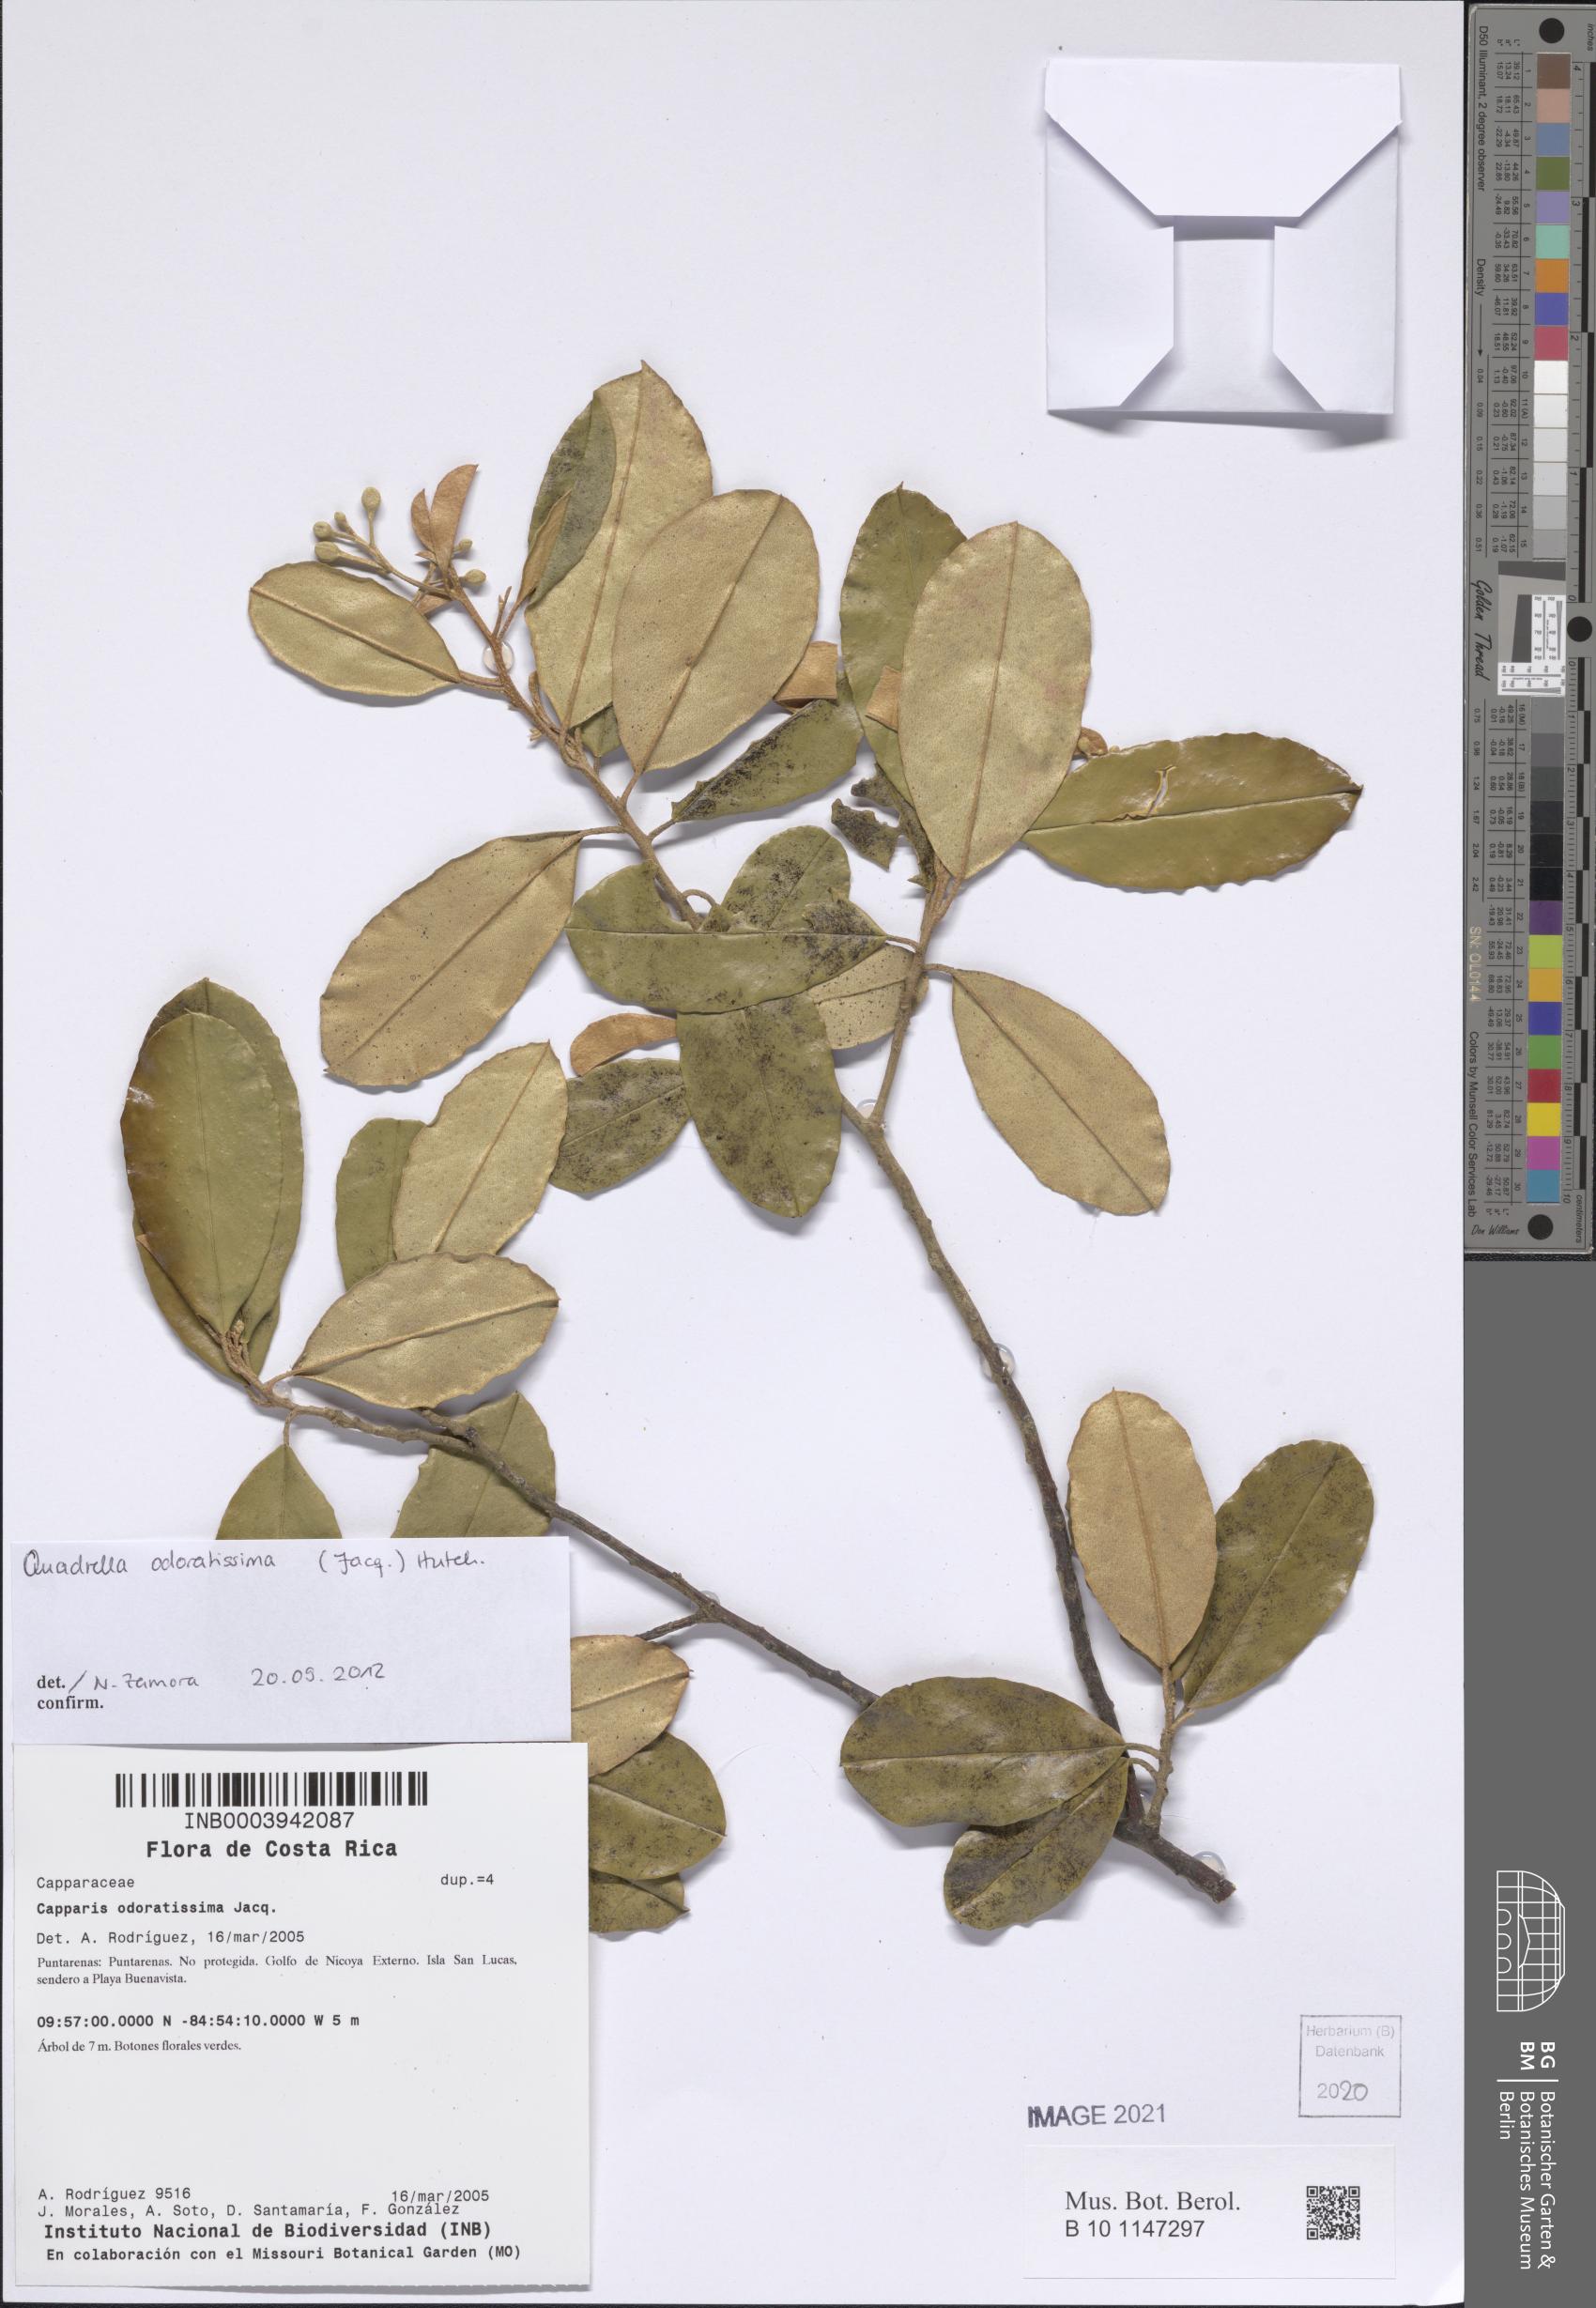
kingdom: Plantae
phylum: Tracheophyta
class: Magnoliopsida
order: Brassicales
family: Capparaceae
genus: Quadrella
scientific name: Quadrella odoratissima
